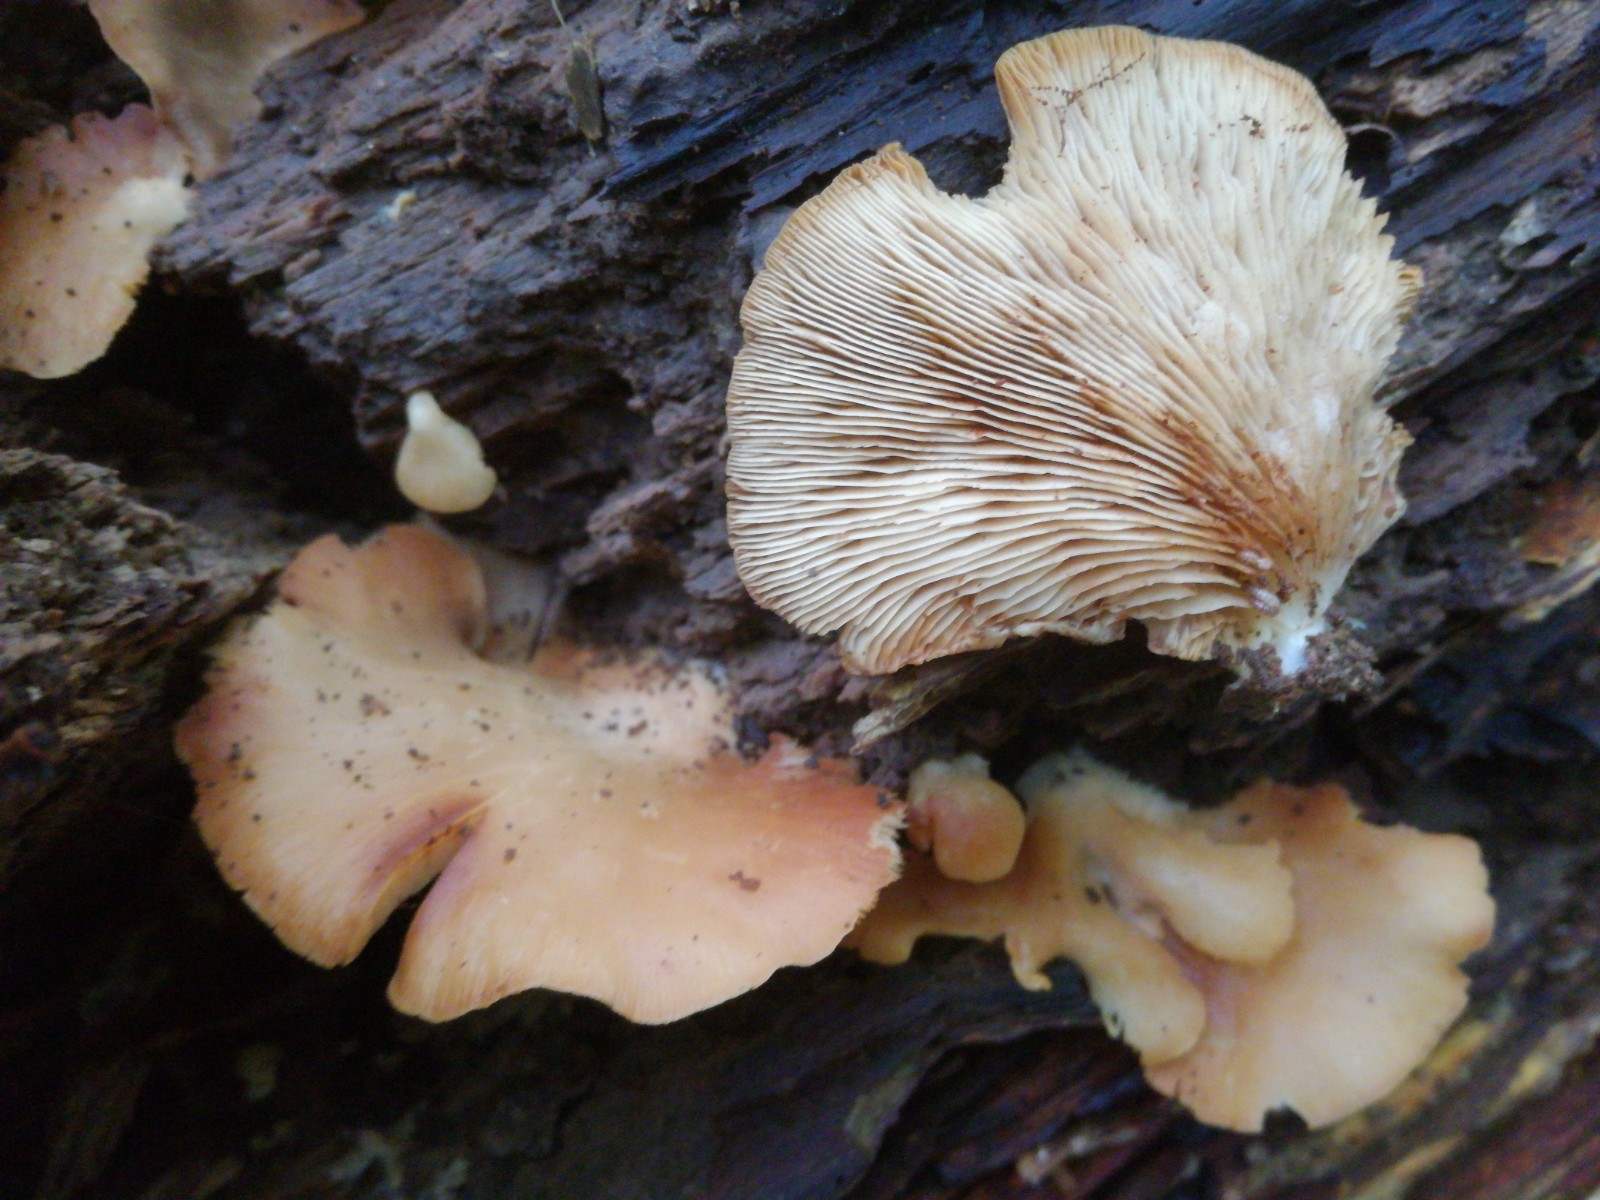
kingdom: Fungi
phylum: Basidiomycota
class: Agaricomycetes
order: Agaricales
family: Crepidotaceae
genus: Crepidotus
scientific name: Crepidotus applanatus
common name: tvefarvet muslingesvamp
